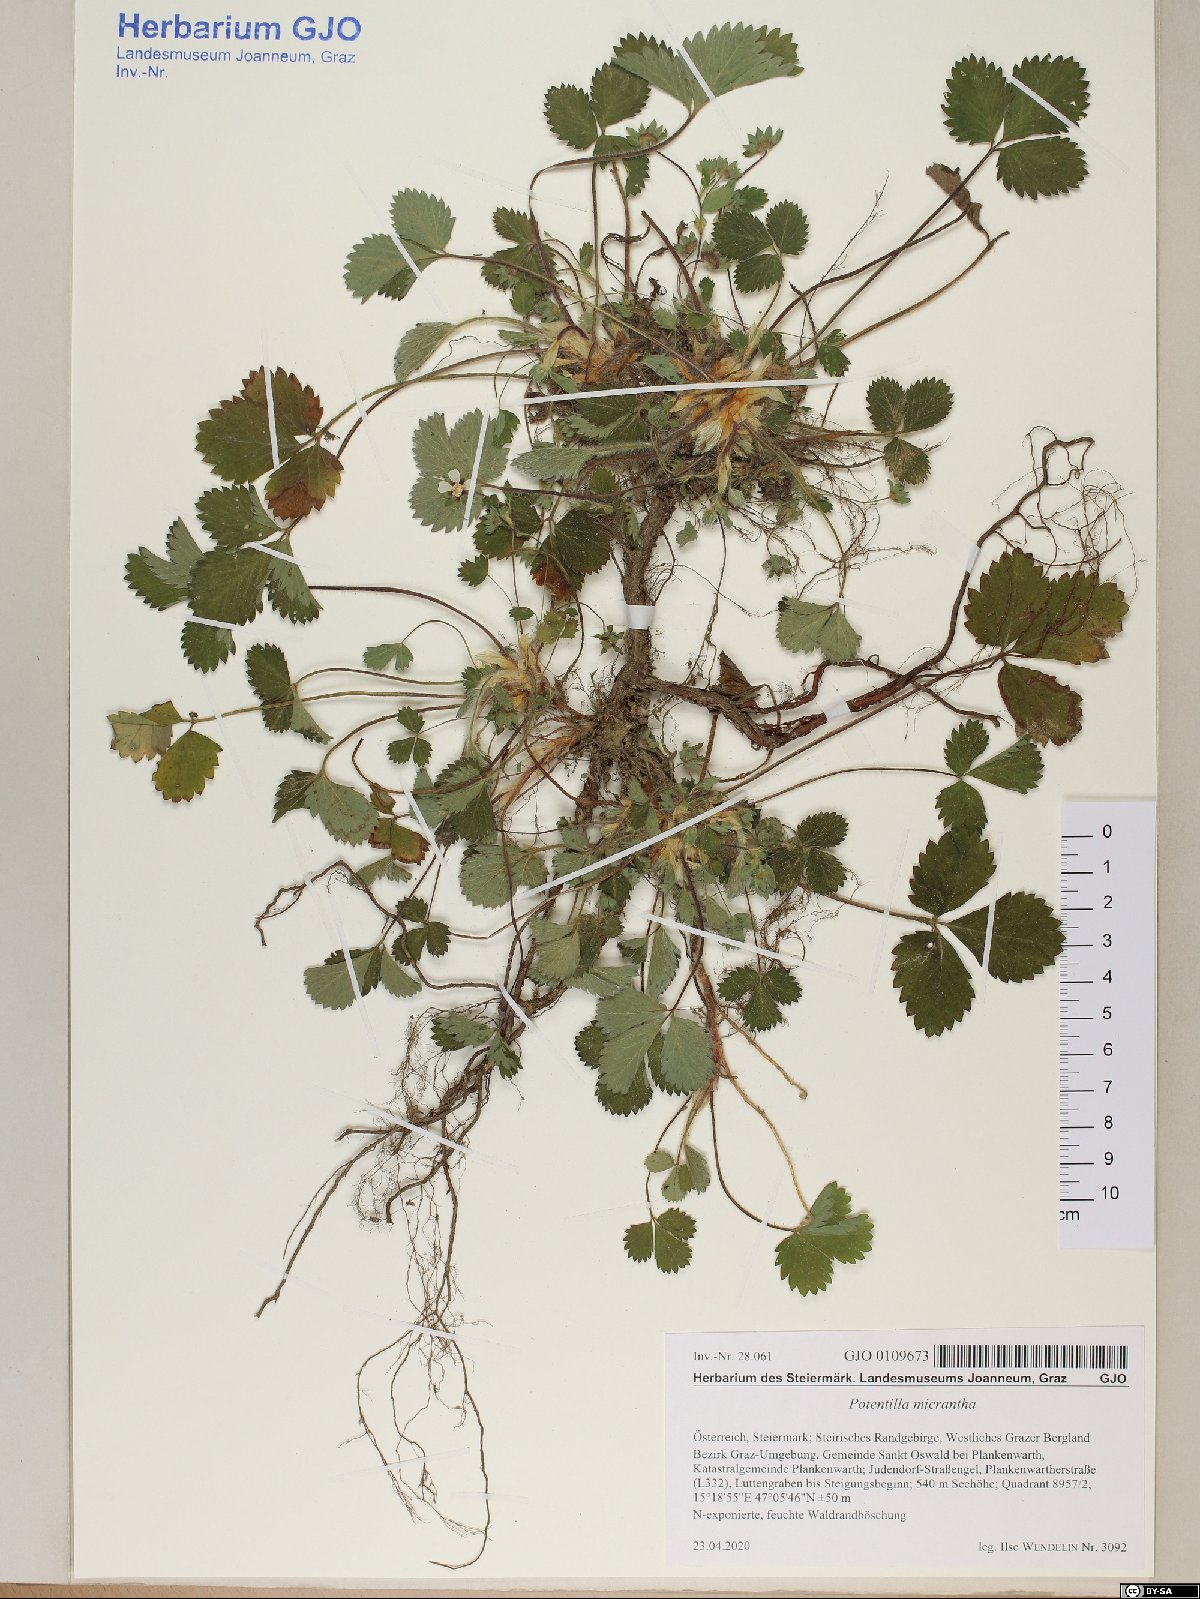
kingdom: Plantae
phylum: Tracheophyta
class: Magnoliopsida
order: Rosales
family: Rosaceae
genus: Potentilla
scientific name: Potentilla micrantha
